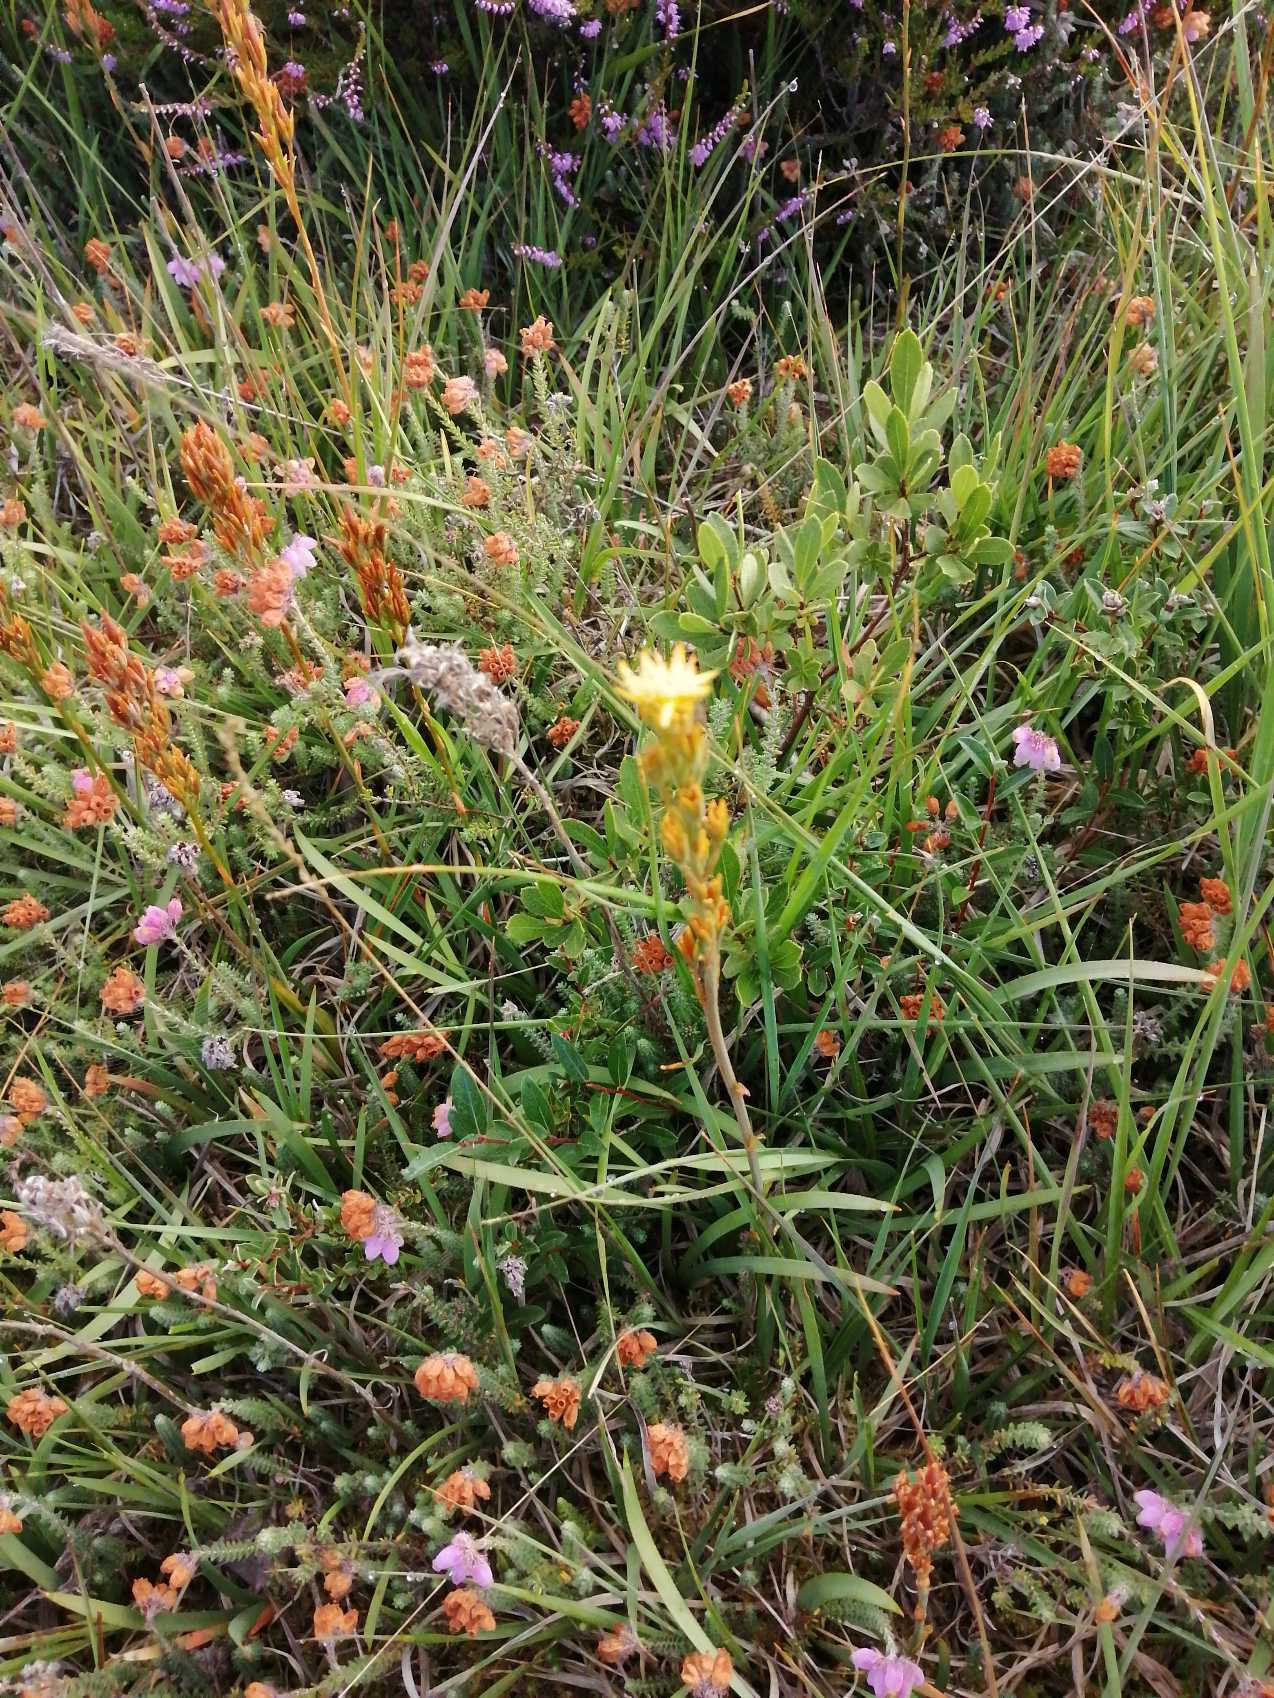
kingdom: Plantae
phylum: Tracheophyta
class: Liliopsida
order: Dioscoreales
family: Nartheciaceae
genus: Narthecium
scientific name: Narthecium ossifragum
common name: Benbræk
